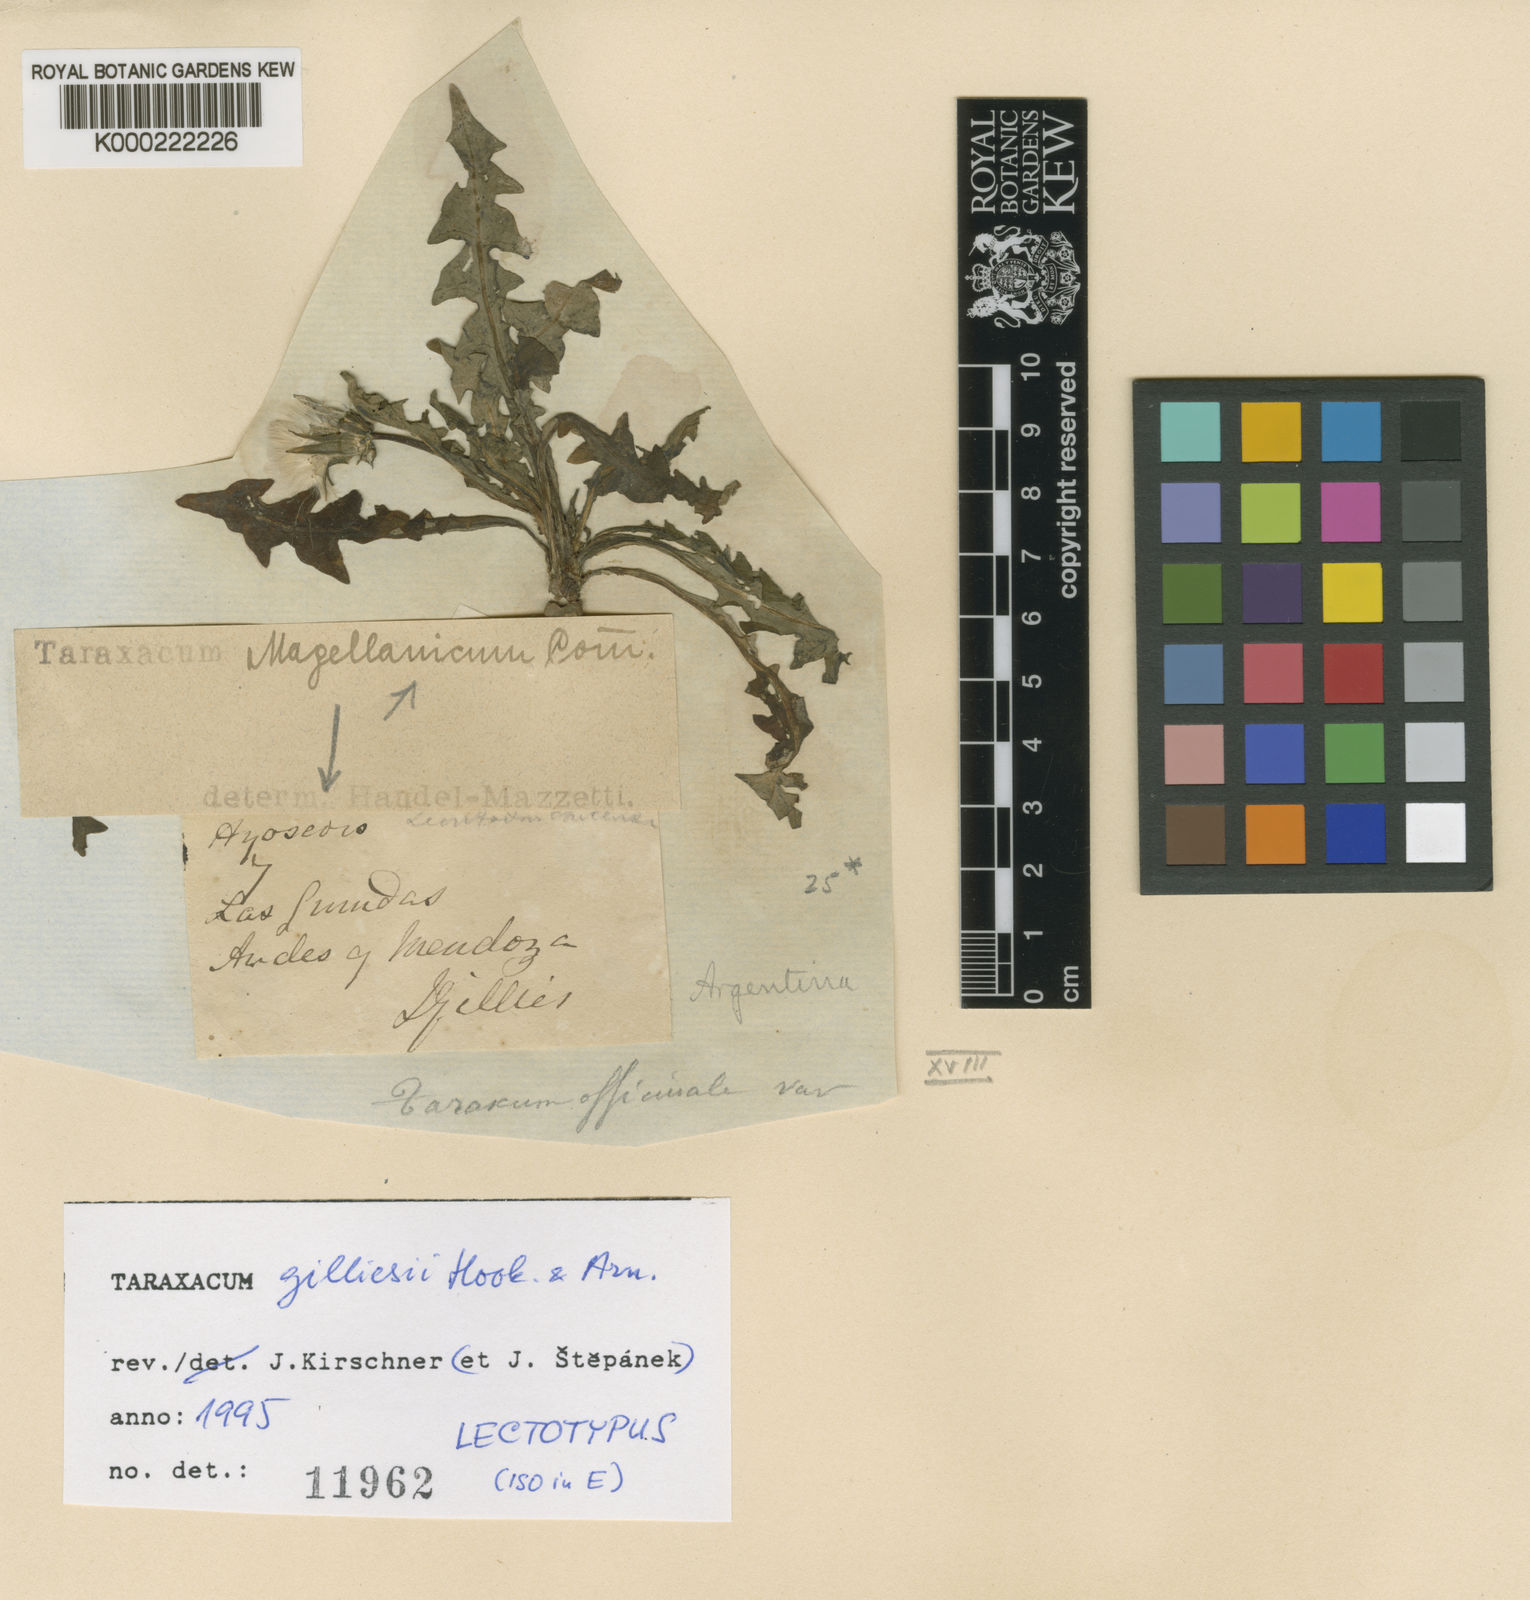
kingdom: Plantae
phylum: Tracheophyta
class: Magnoliopsida
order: Asterales
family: Asteraceae
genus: Taraxacum
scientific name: Taraxacum gilliesii
